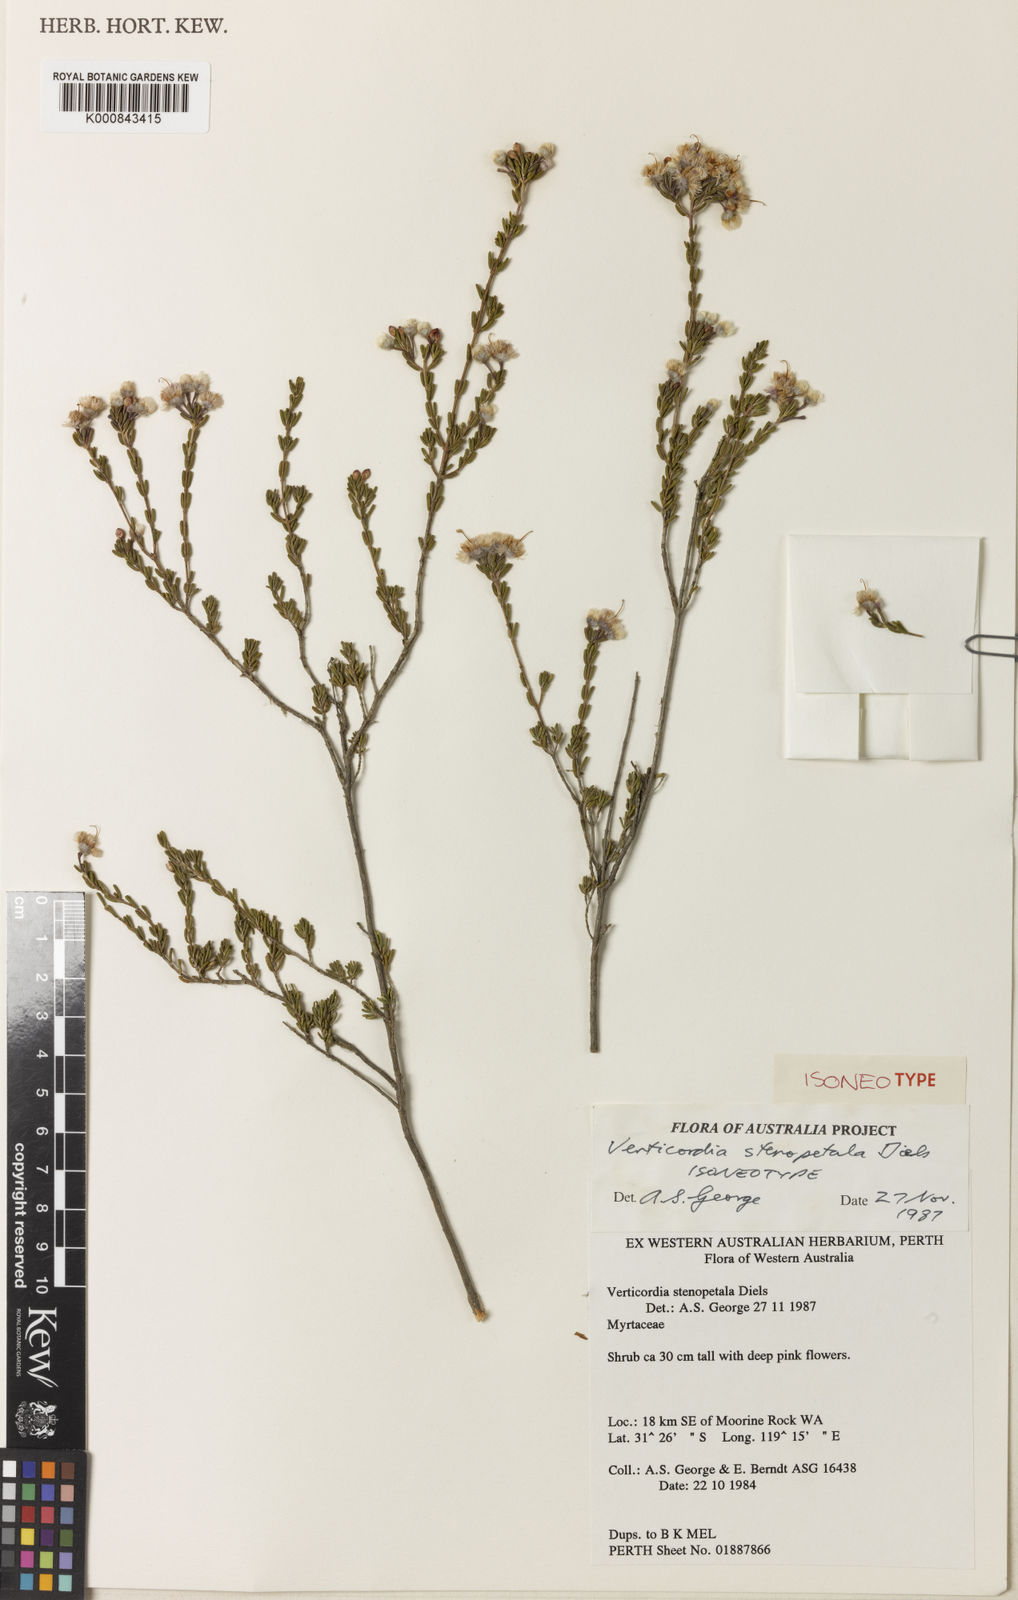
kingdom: Plantae
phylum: Tracheophyta
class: Magnoliopsida
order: Myrtales
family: Myrtaceae
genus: Verticordia
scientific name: Verticordia stenopetala
